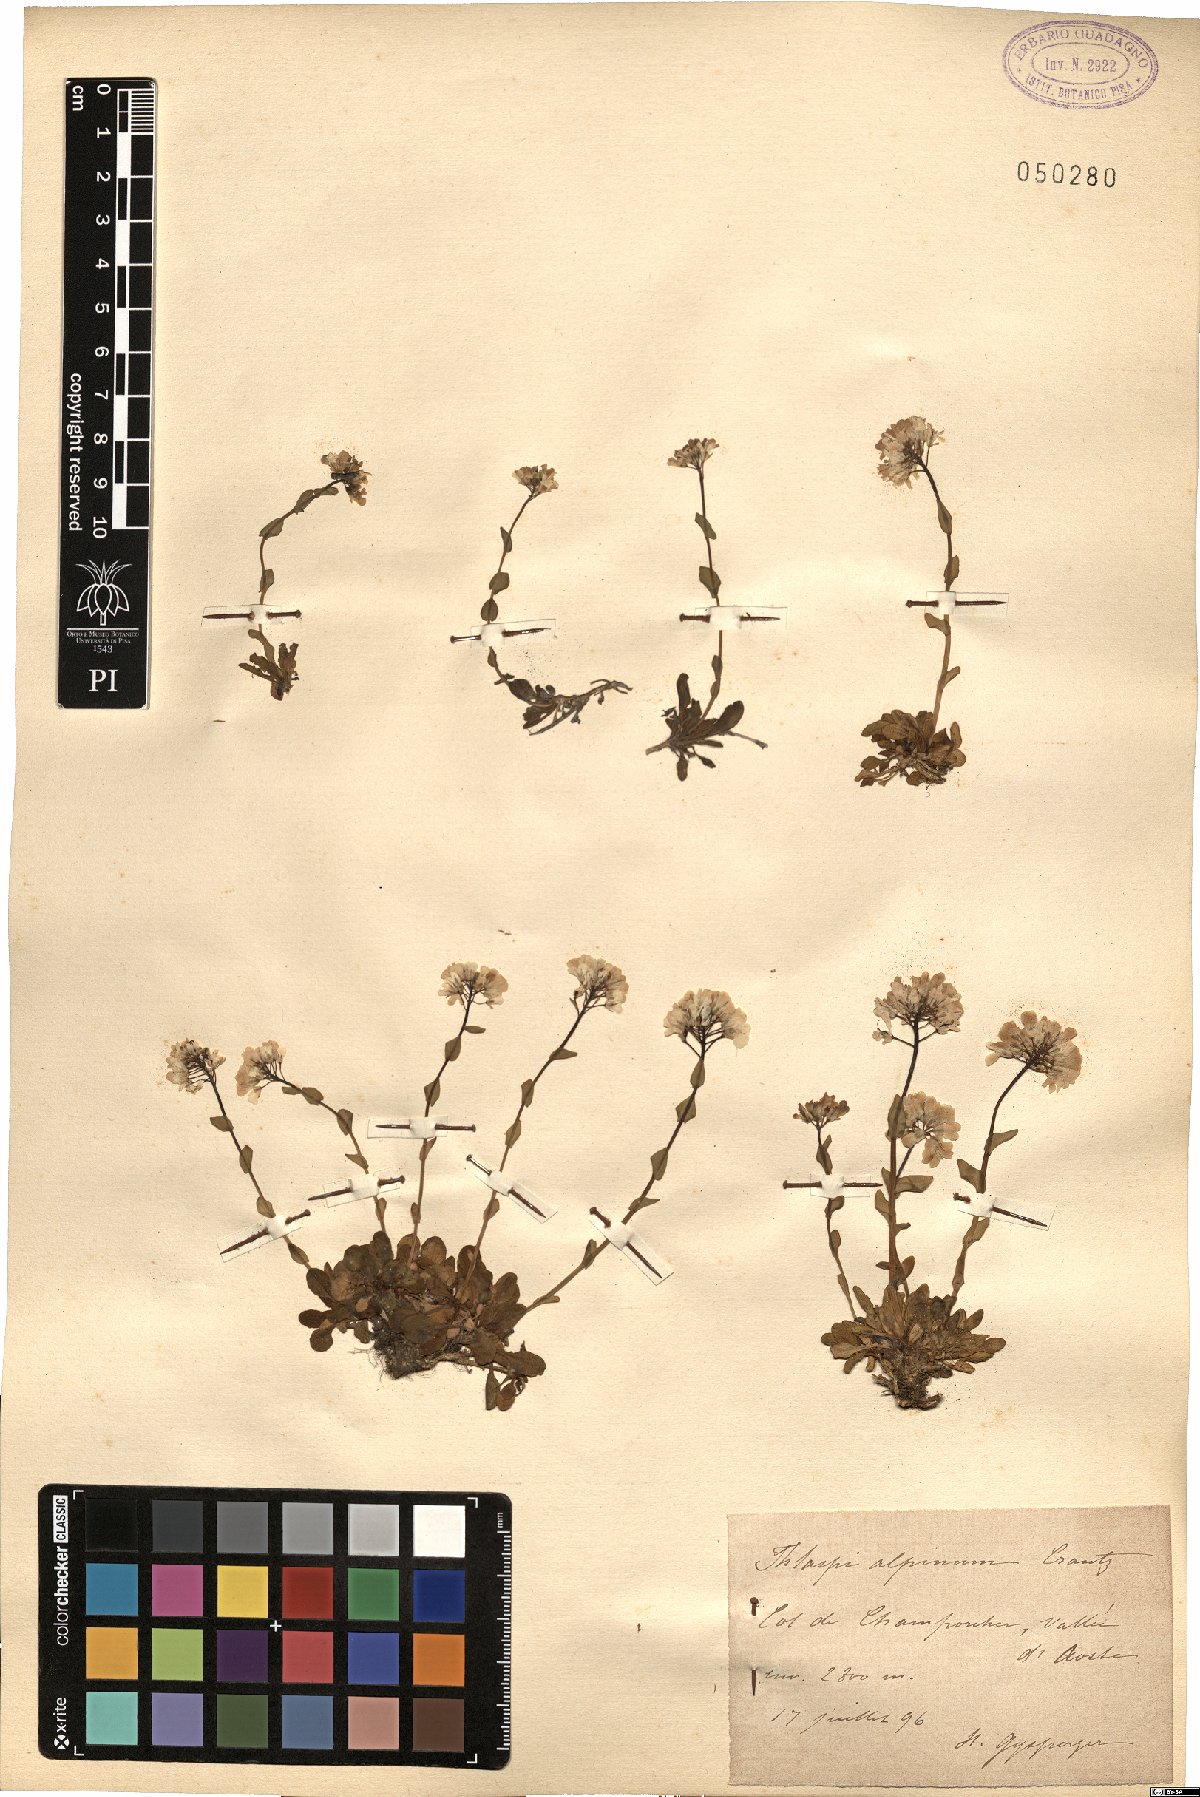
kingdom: Plantae
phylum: Tracheophyta
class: Magnoliopsida
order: Brassicales
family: Brassicaceae
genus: Noccaea
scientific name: Noccaea alpestris
